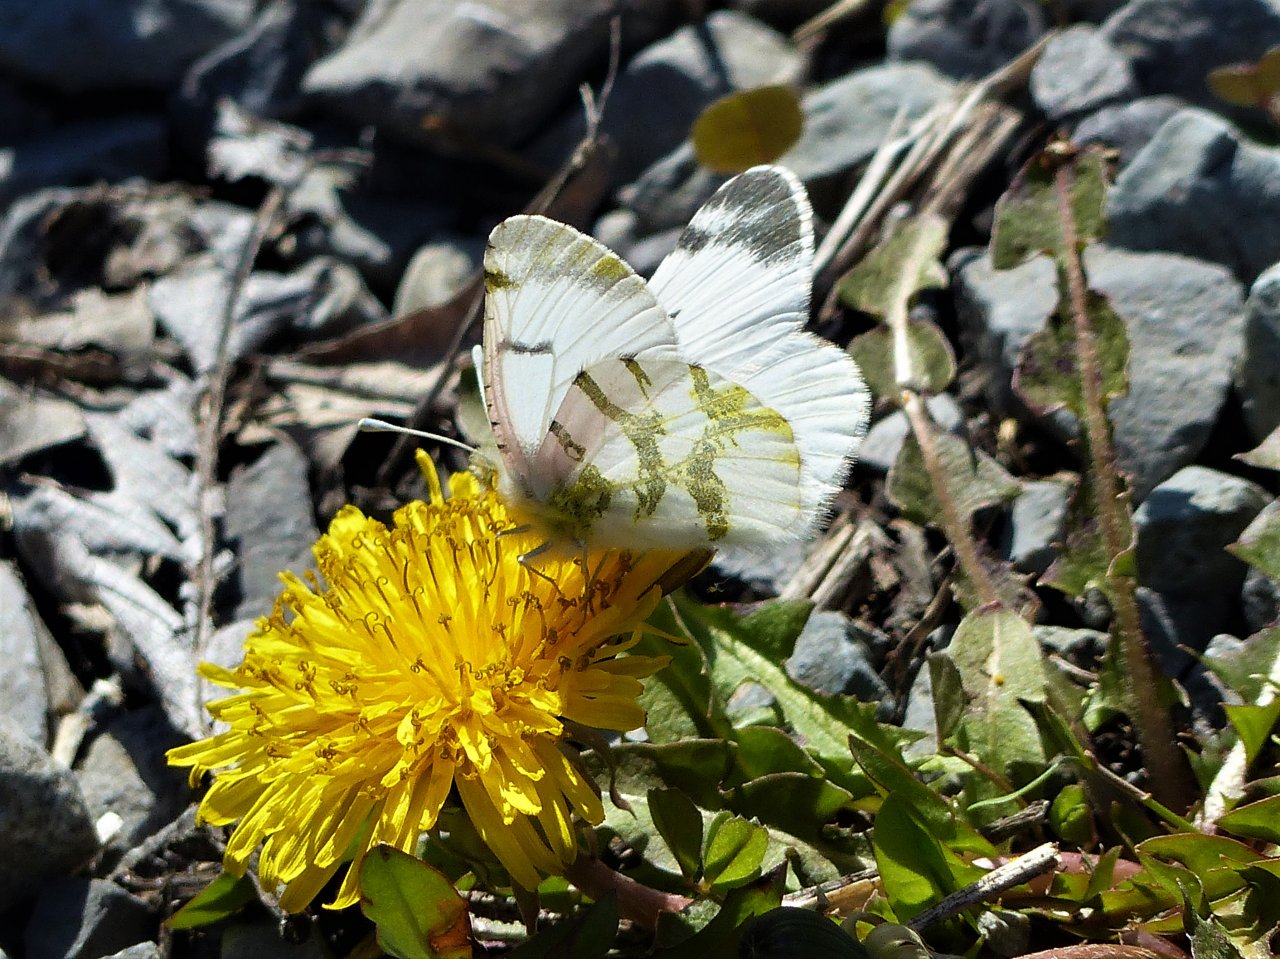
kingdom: Animalia
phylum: Arthropoda
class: Insecta
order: Lepidoptera
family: Pieridae
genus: Euchloe
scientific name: Euchloe olympia
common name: Olympia Marble
